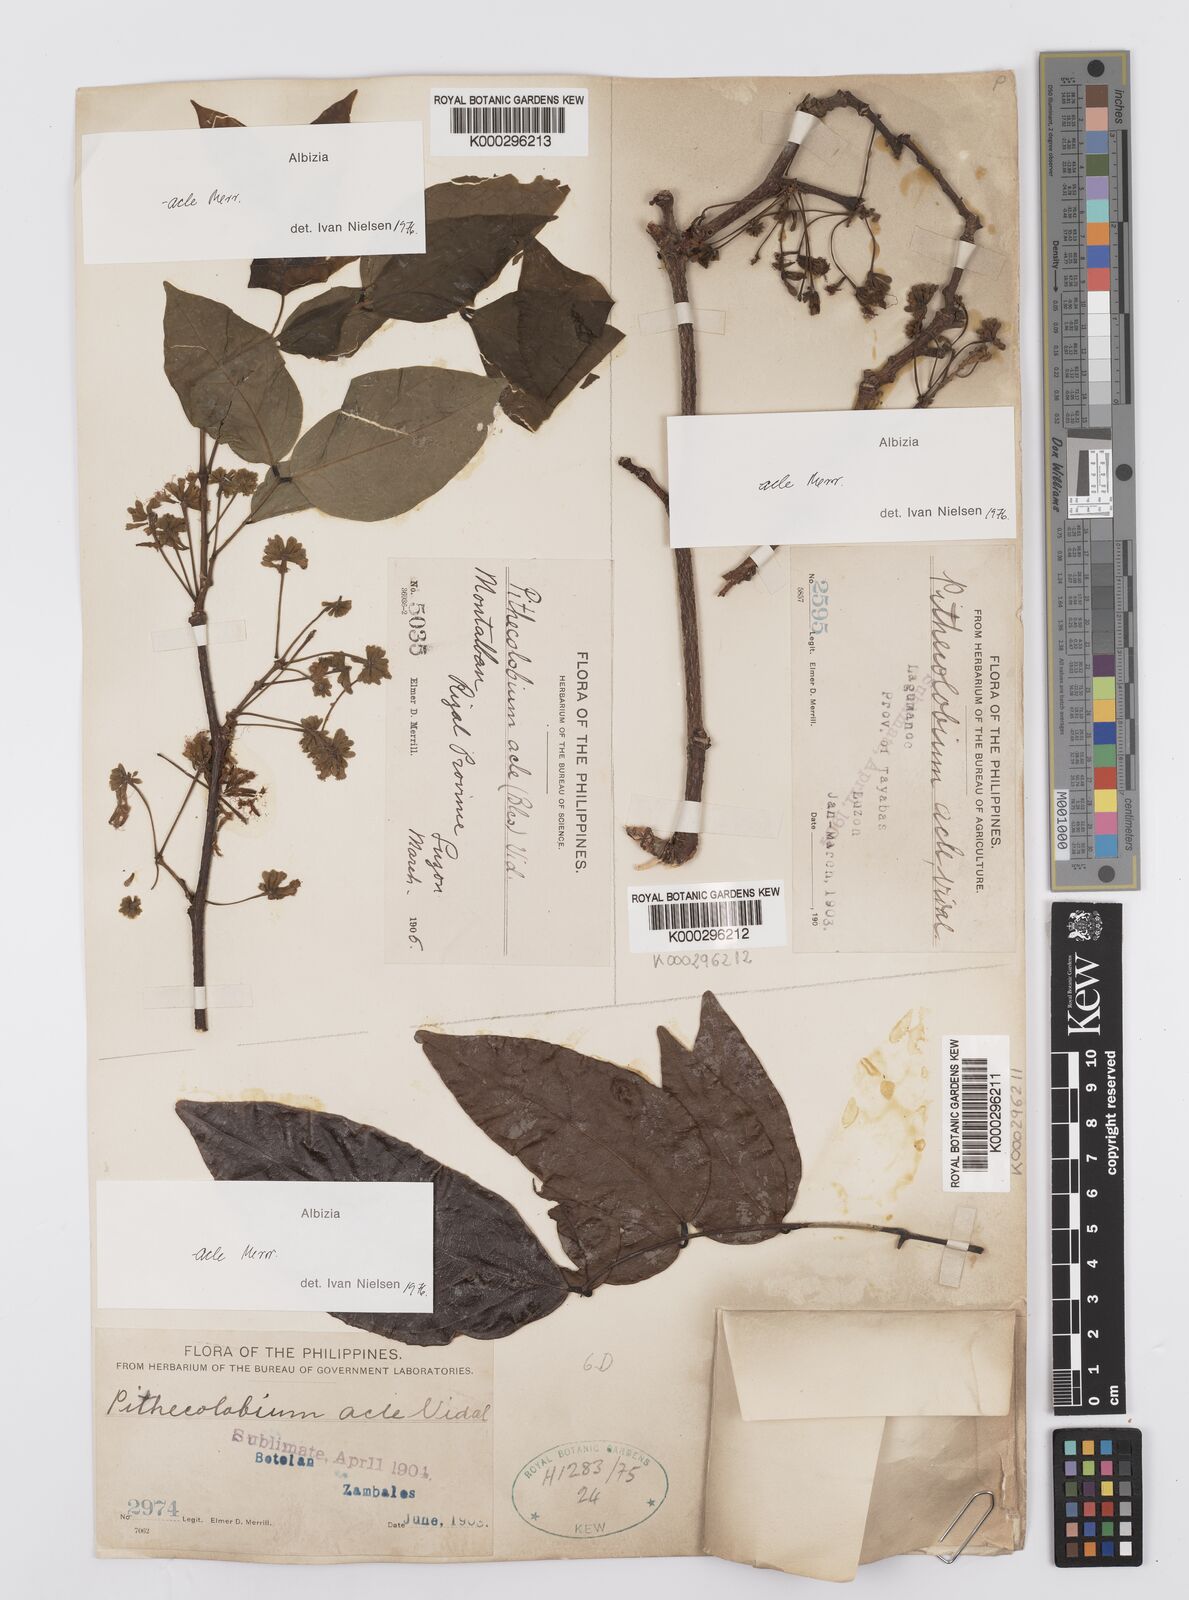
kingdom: Plantae
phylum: Tracheophyta
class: Magnoliopsida
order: Fabales
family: Fabaceae
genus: Albizia
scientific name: Albizia acle
